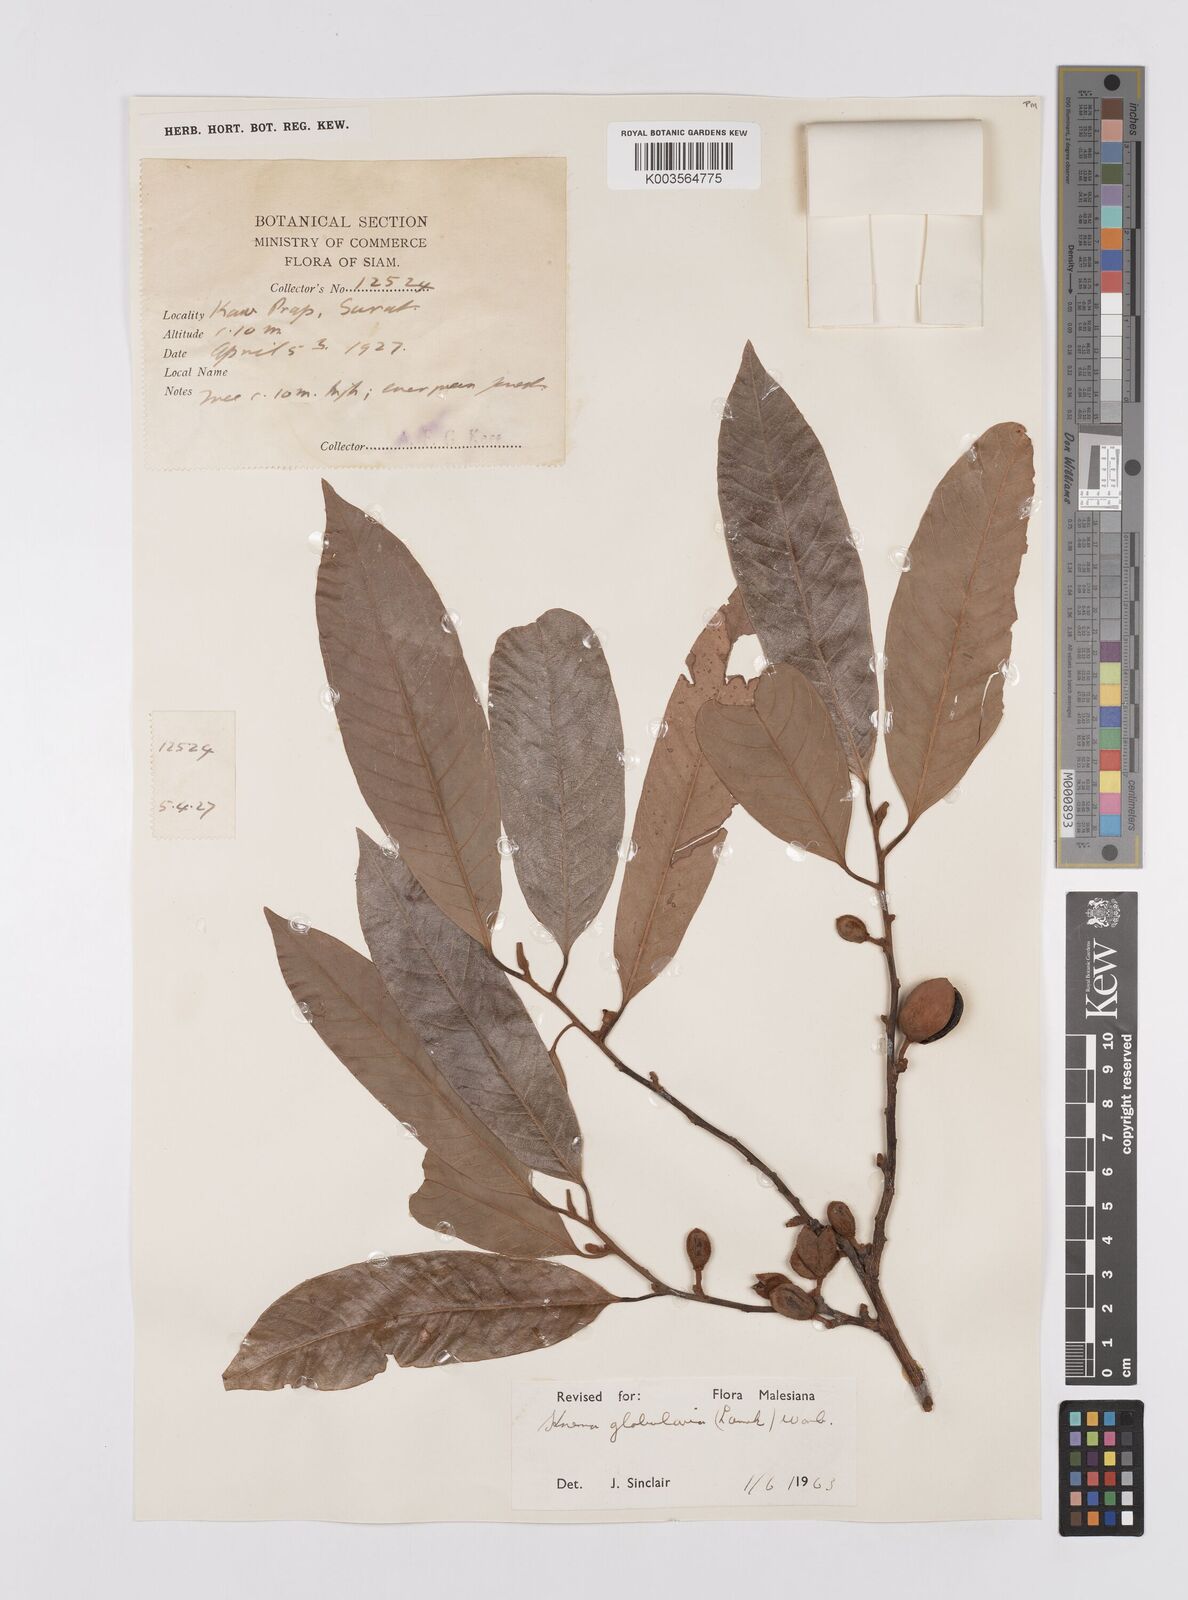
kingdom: Plantae
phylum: Tracheophyta
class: Magnoliopsida
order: Magnoliales
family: Myristicaceae
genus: Knema
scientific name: Knema globularia
